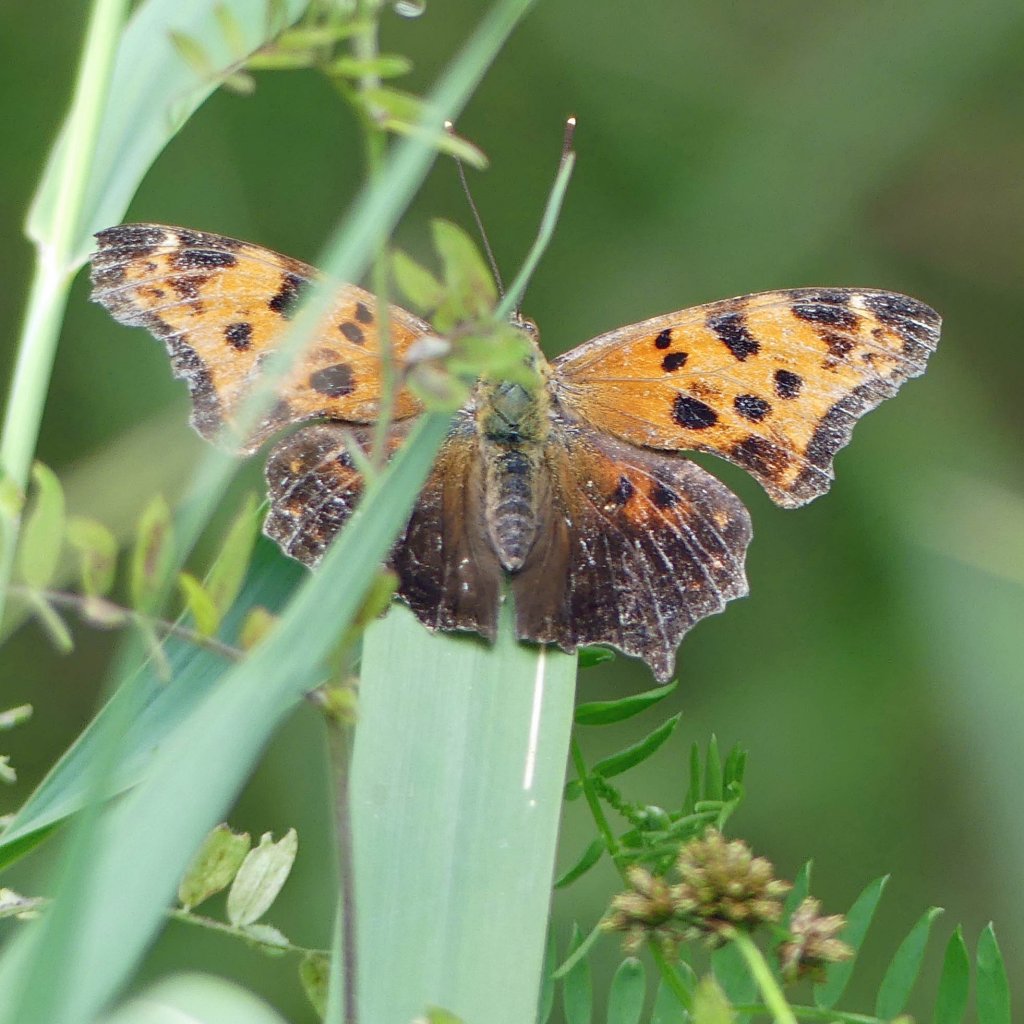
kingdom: Animalia
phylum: Arthropoda
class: Insecta
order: Lepidoptera
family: Nymphalidae
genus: Polygonia
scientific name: Polygonia comma
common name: Eastern Comma
